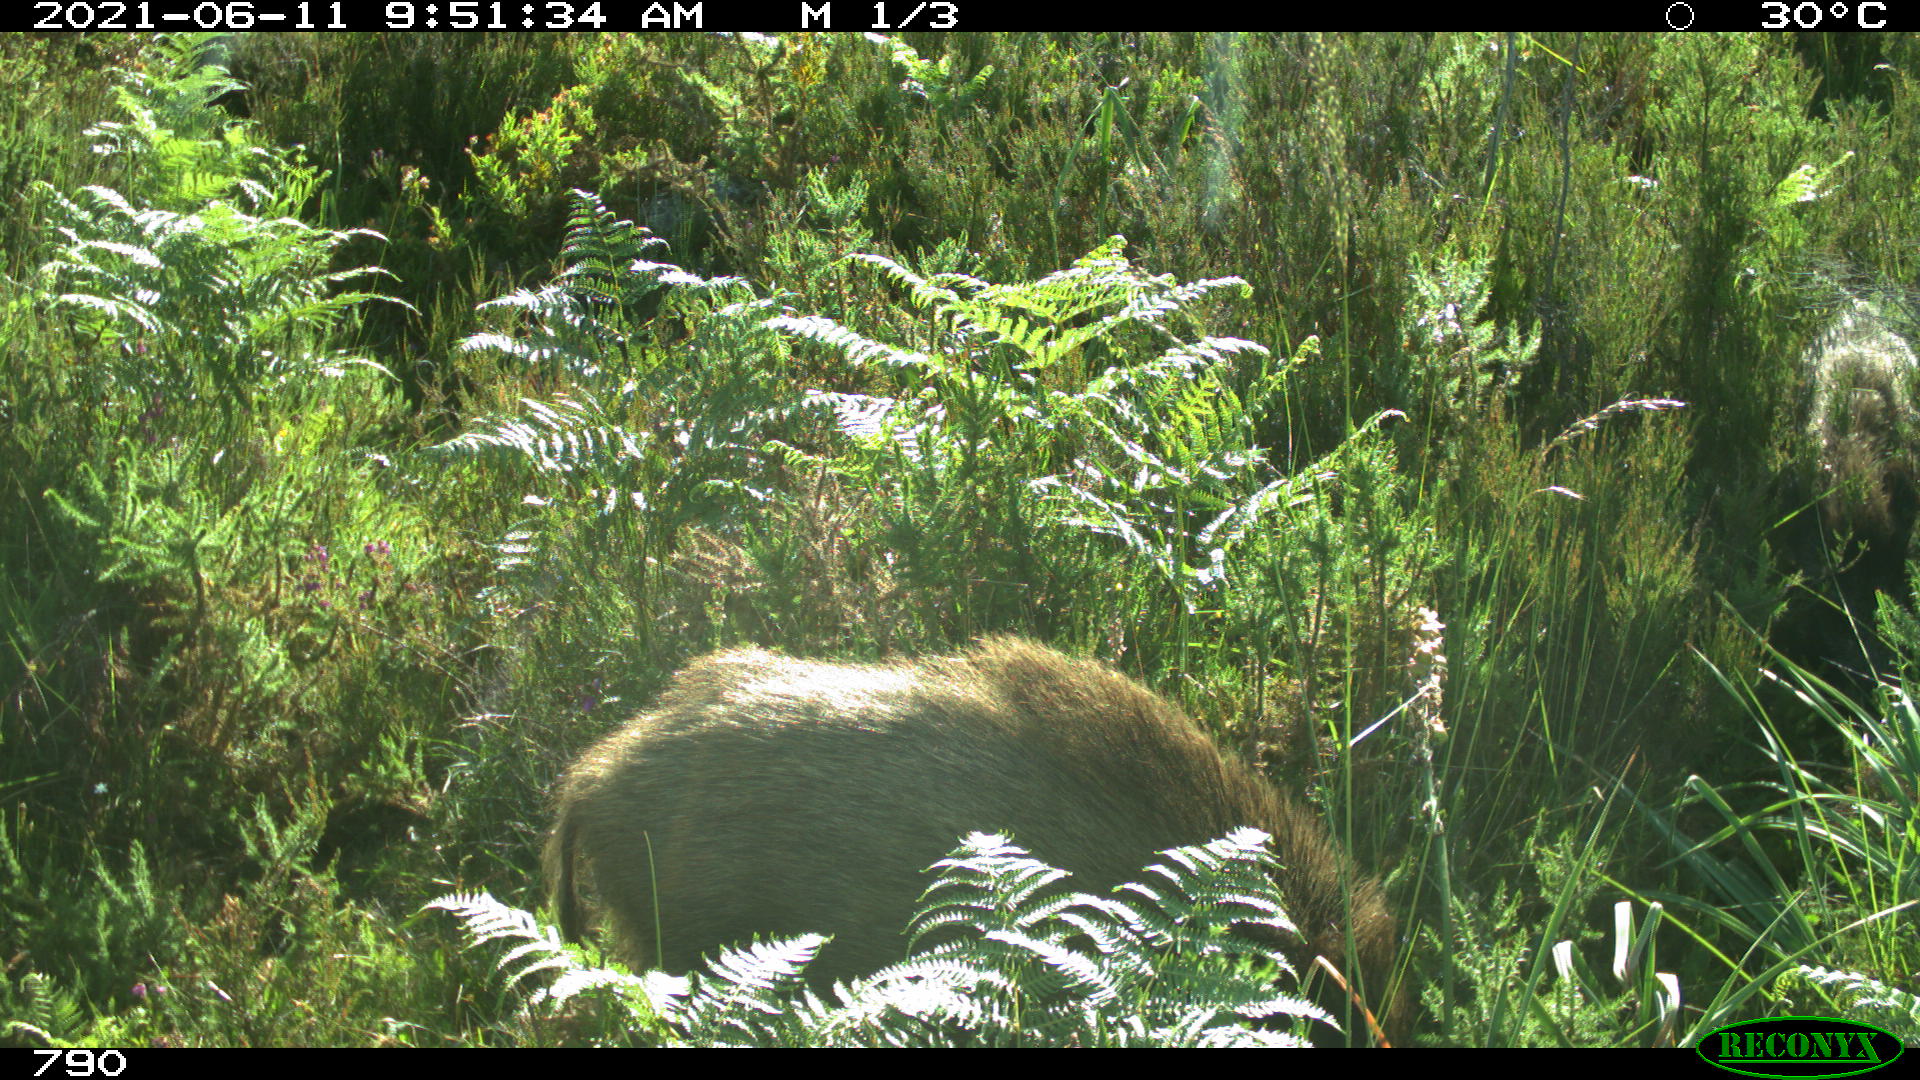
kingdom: Animalia
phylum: Chordata
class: Mammalia
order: Artiodactyla
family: Suidae
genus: Sus
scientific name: Sus scrofa
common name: Wild boar
